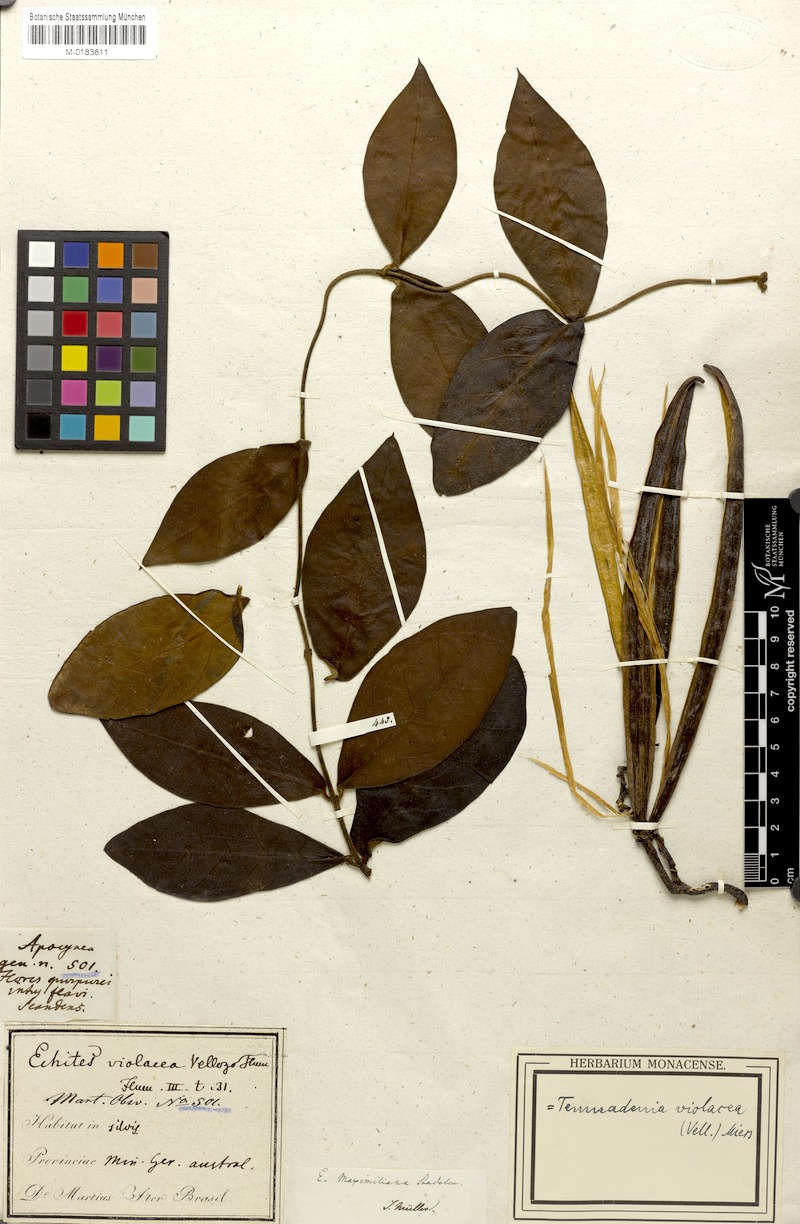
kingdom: Plantae
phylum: Tracheophyta
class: Magnoliopsida
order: Gentianales
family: Apocynaceae
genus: Temnadenia
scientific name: Temnadenia violacea
